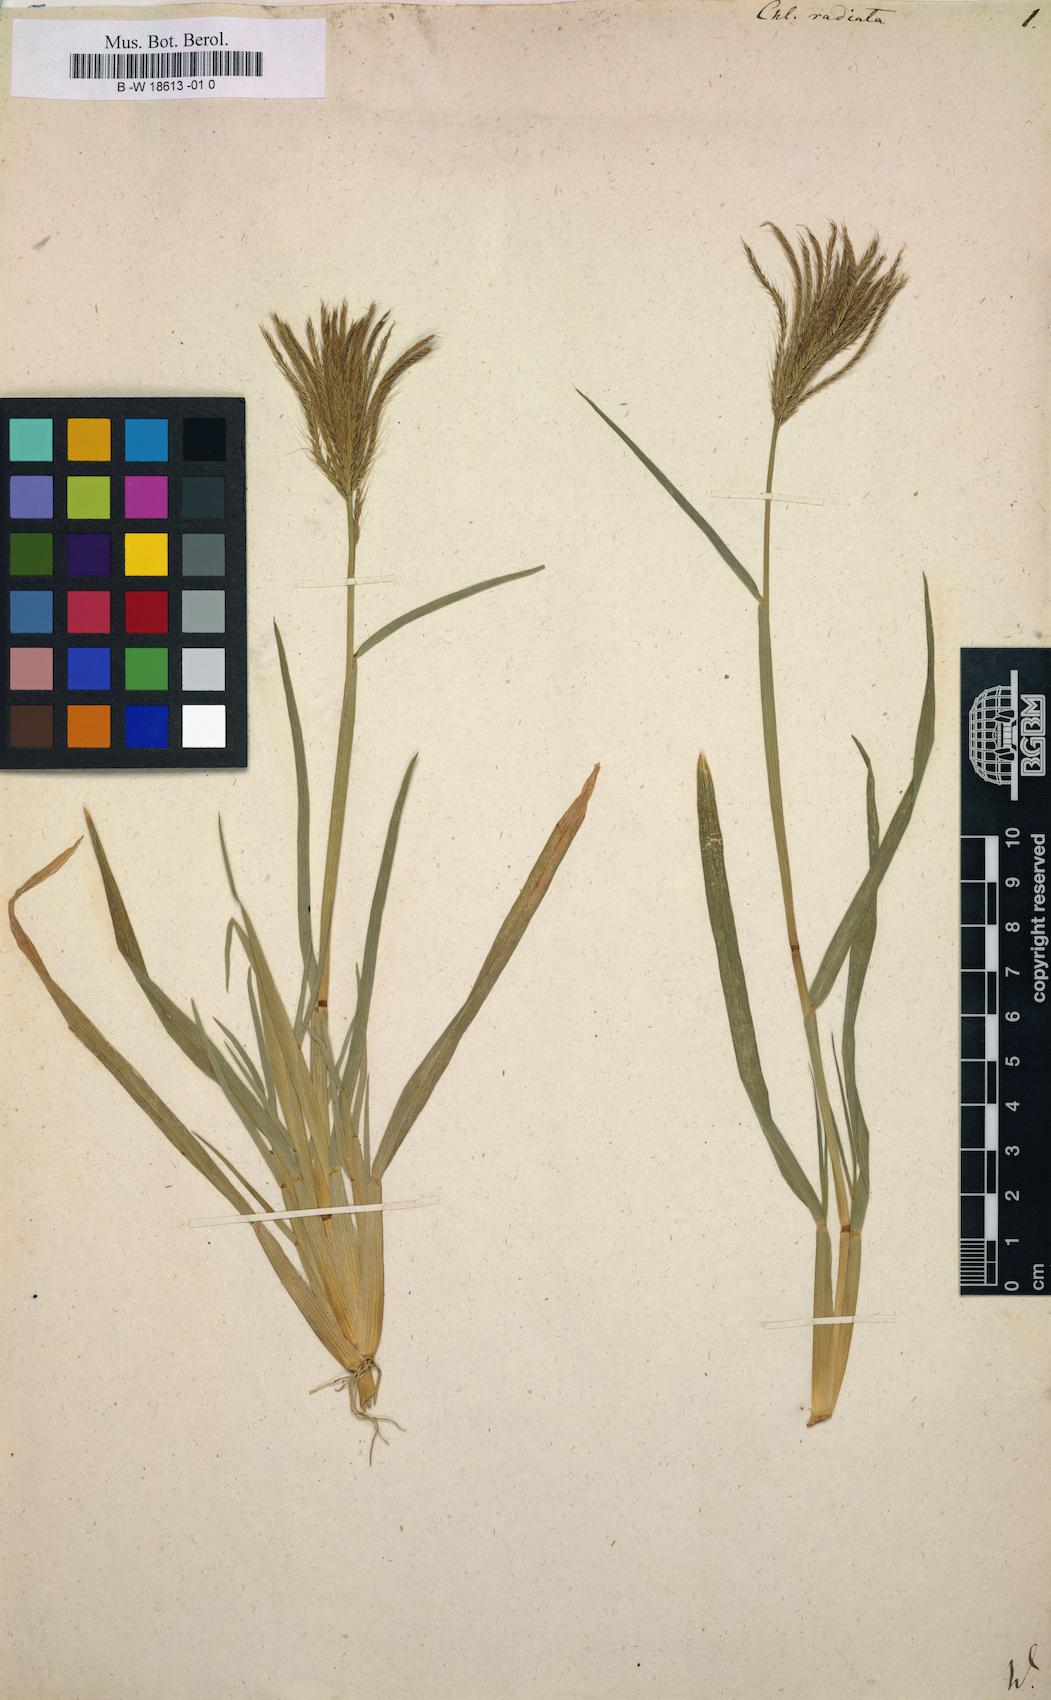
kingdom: Plantae
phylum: Tracheophyta
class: Liliopsida
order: Poales
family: Poaceae
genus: Chloris
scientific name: Chloris radiata
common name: Radiate fingergrass
